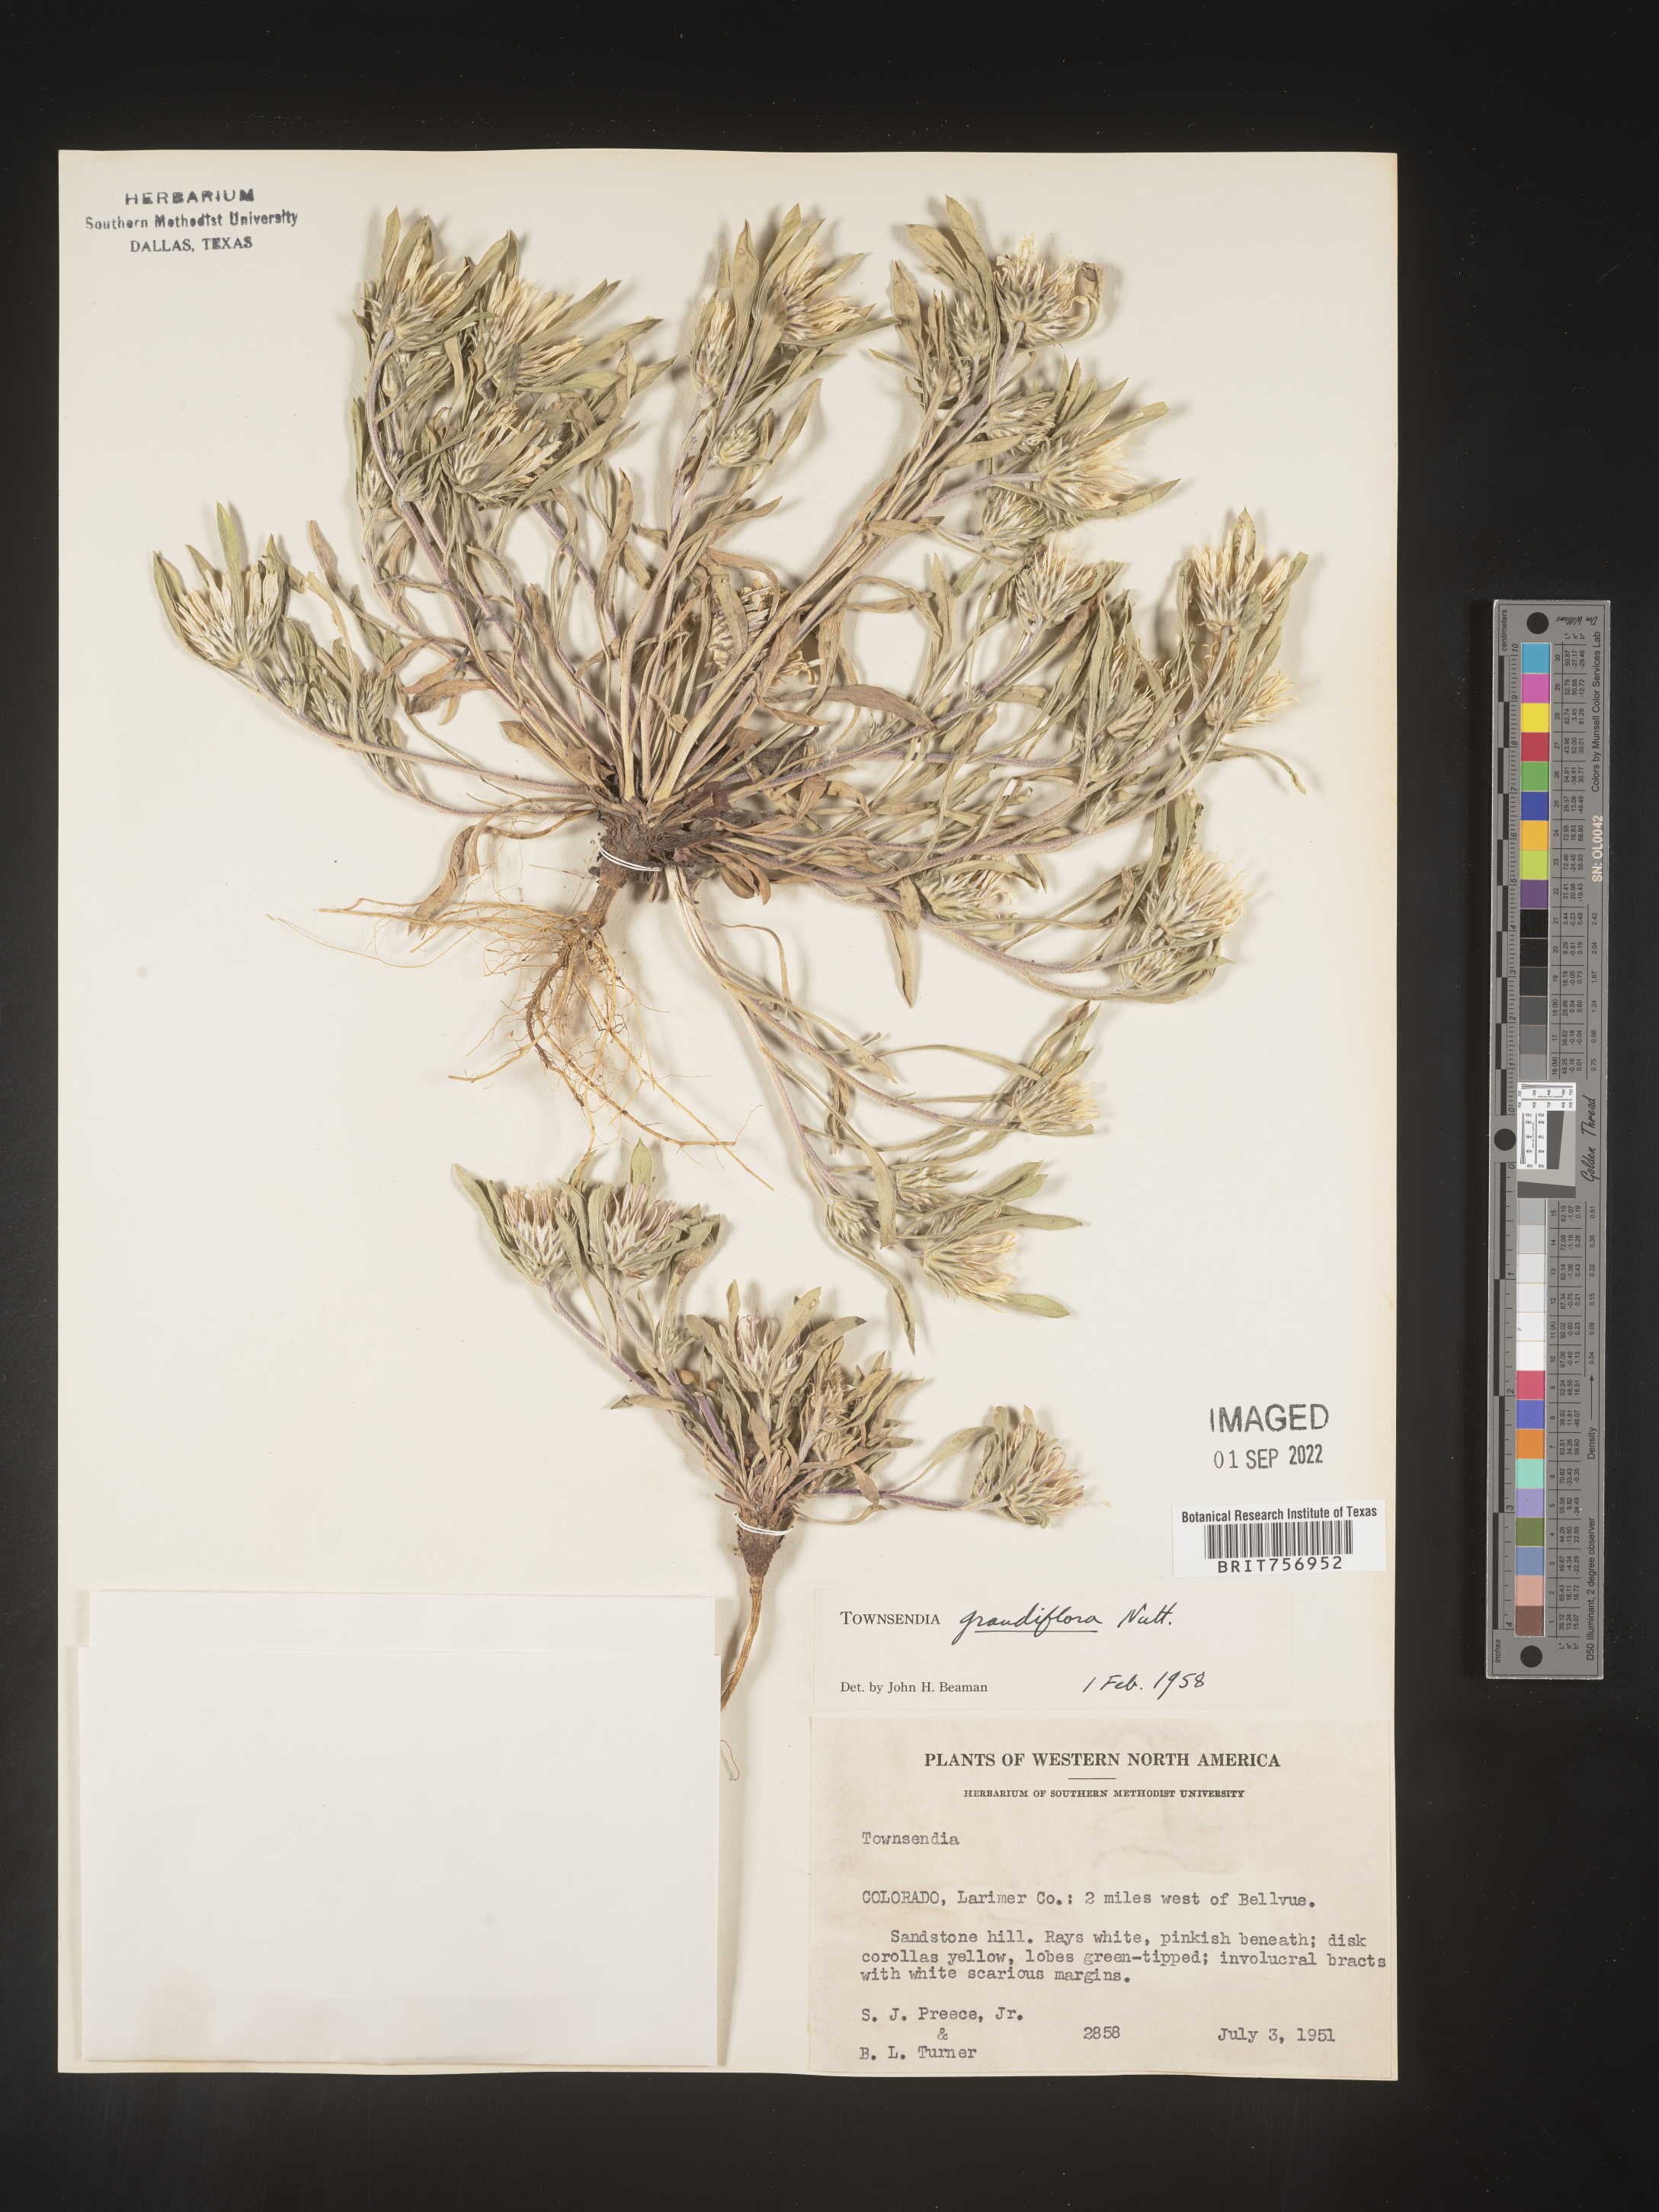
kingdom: Plantae
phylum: Tracheophyta
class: Magnoliopsida
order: Asterales
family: Asteraceae
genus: Townsendia
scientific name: Townsendia grandiflora
